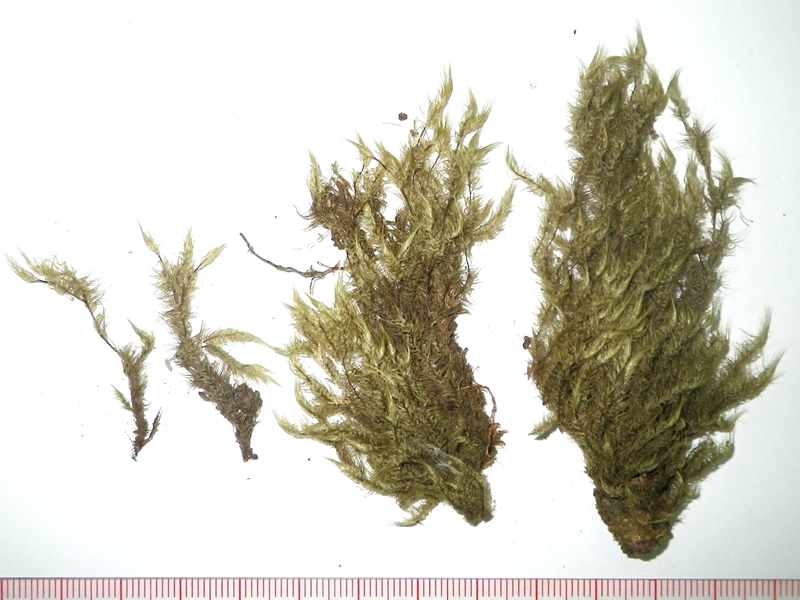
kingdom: Plantae
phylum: Bryophyta
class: Bryopsida
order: Dicranales
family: Dicranaceae
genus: Leucoloma
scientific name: Leucoloma molle
